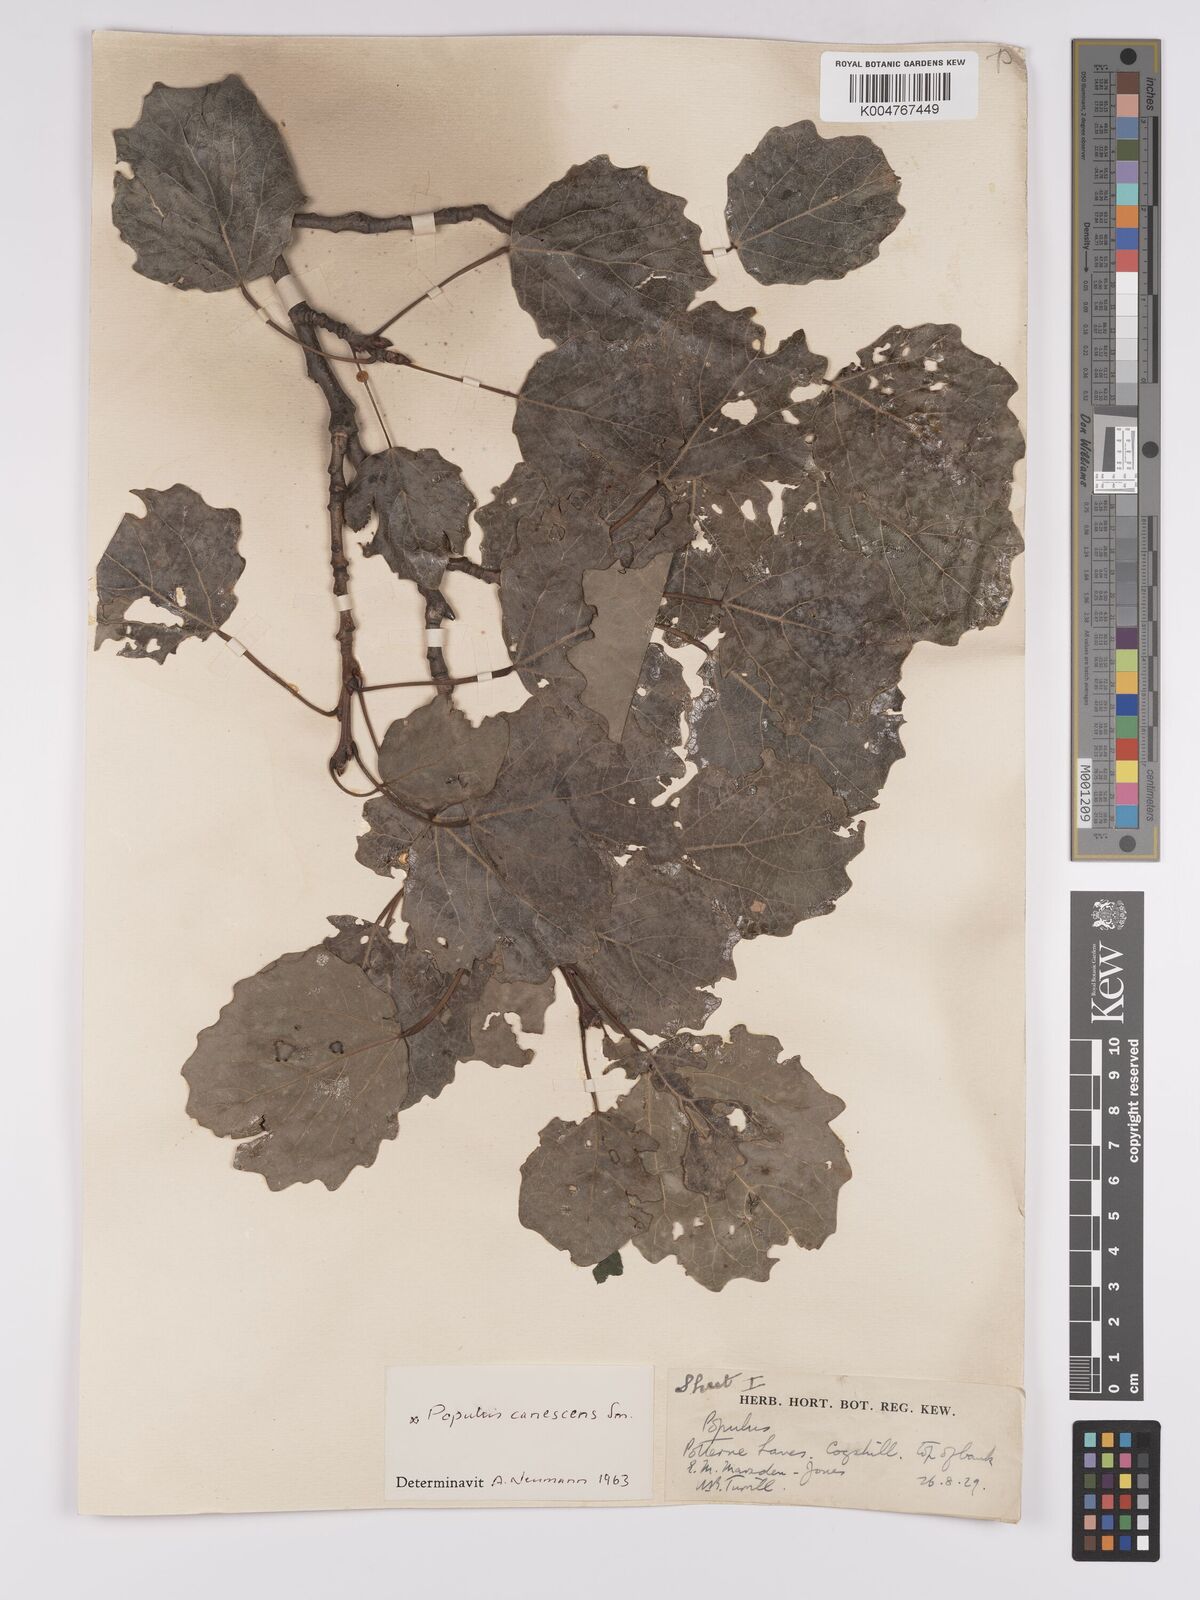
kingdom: Plantae
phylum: Tracheophyta
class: Magnoliopsida
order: Malpighiales
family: Salicaceae
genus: Populus
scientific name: Populus canescens
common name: Gray poplar
